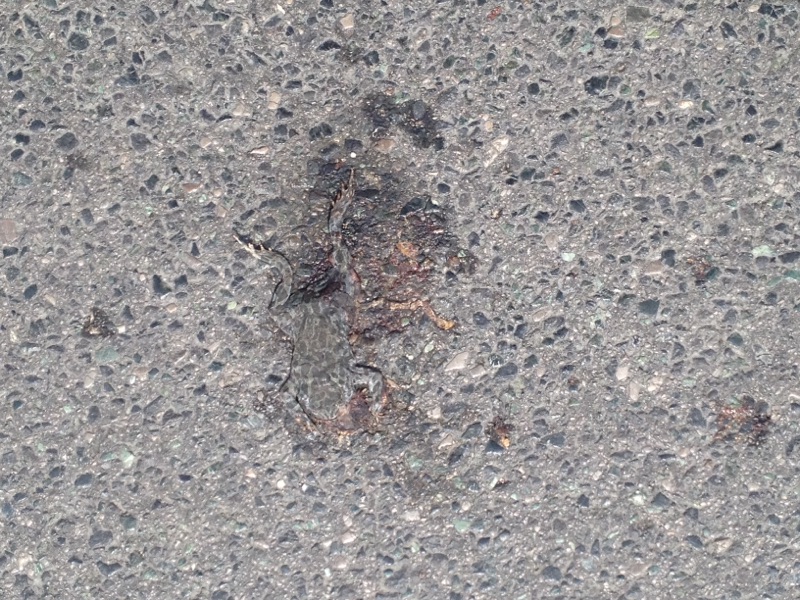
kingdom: Animalia
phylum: Chordata
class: Amphibia
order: Anura
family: Bufonidae
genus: Bufotes
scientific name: Bufotes viridis
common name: European green toad
